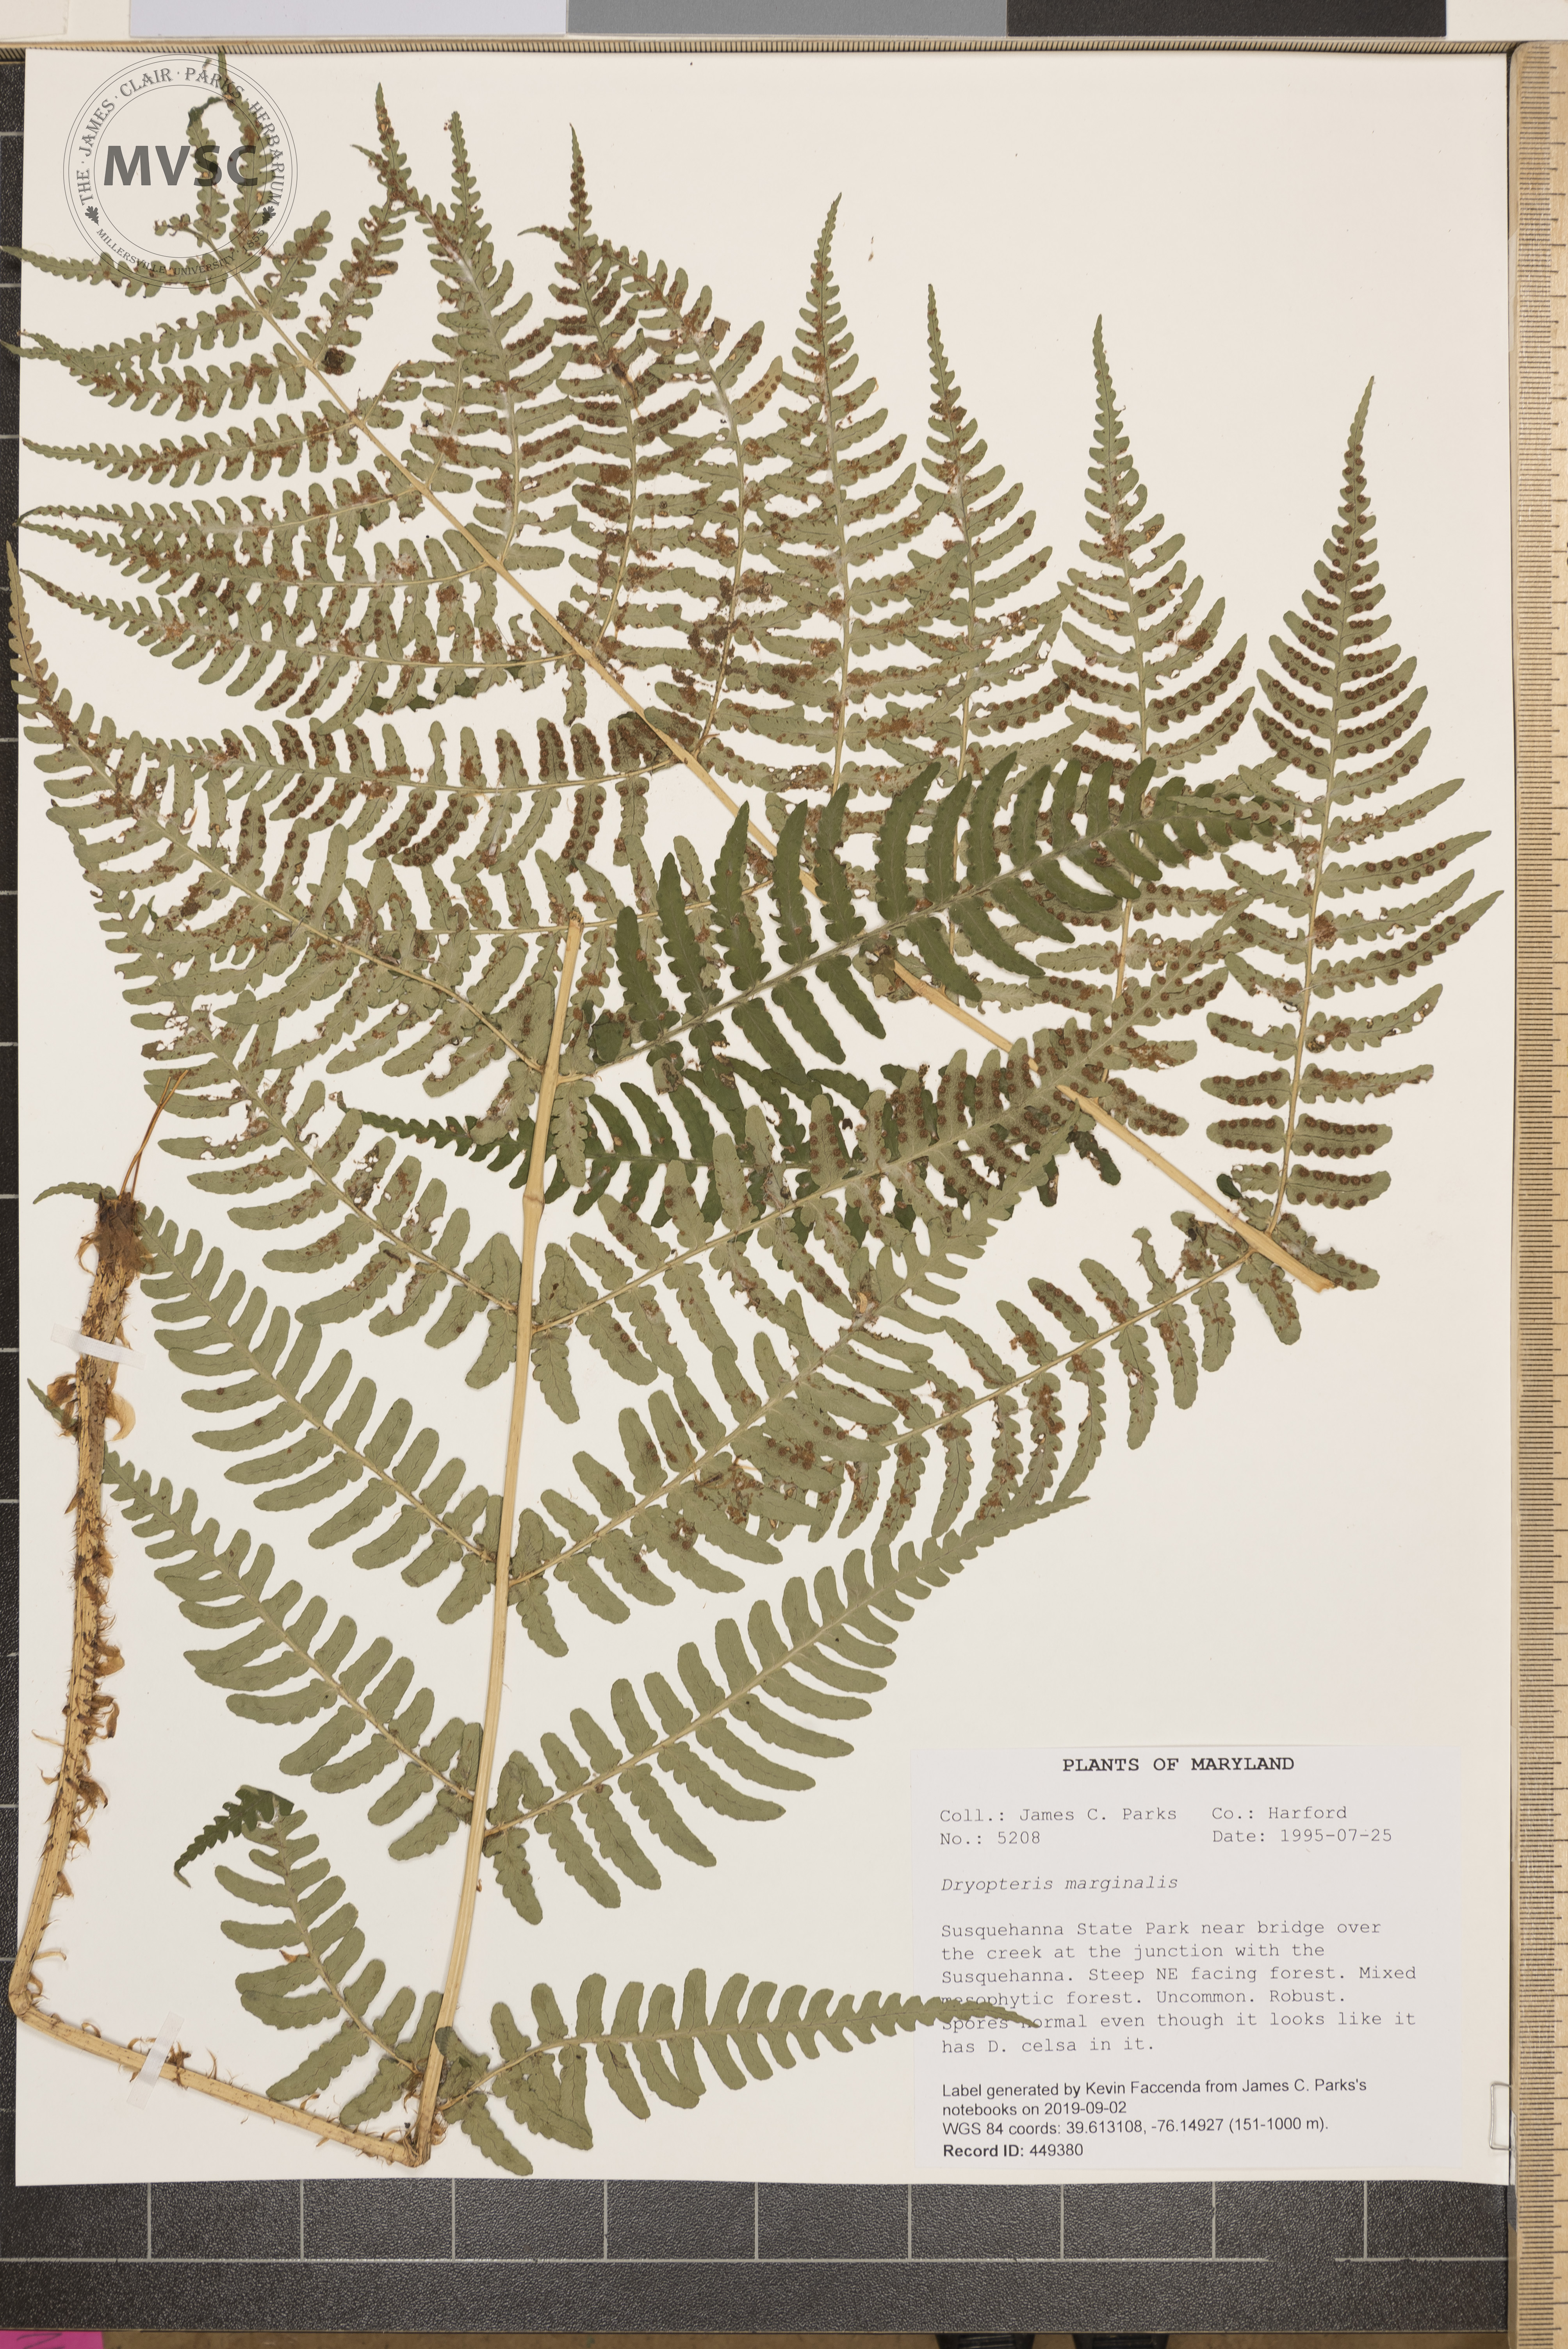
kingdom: Plantae
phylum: Tracheophyta
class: Polypodiopsida
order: Polypodiales
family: Dryopteridaceae
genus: Dryopteris
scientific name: Dryopteris marginalis
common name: Marginal wood fern
